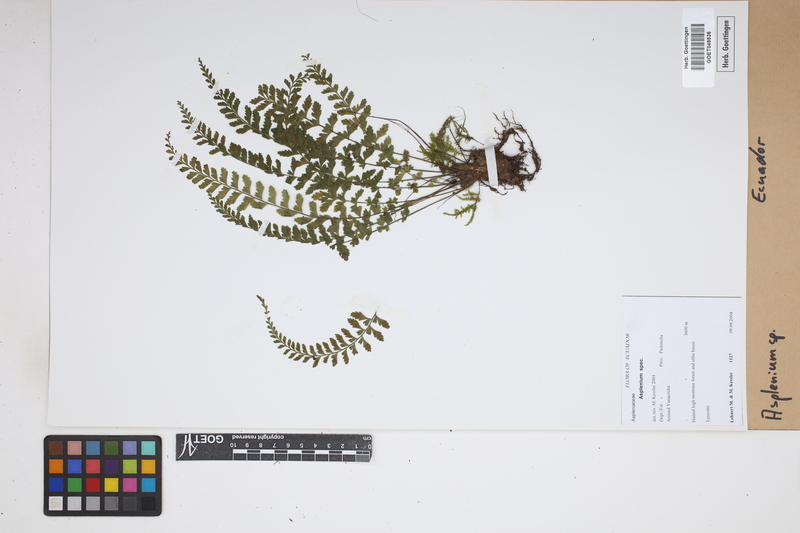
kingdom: Plantae
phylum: Tracheophyta
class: Polypodiopsida
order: Polypodiales
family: Aspleniaceae
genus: Asplenium
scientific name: Asplenium
